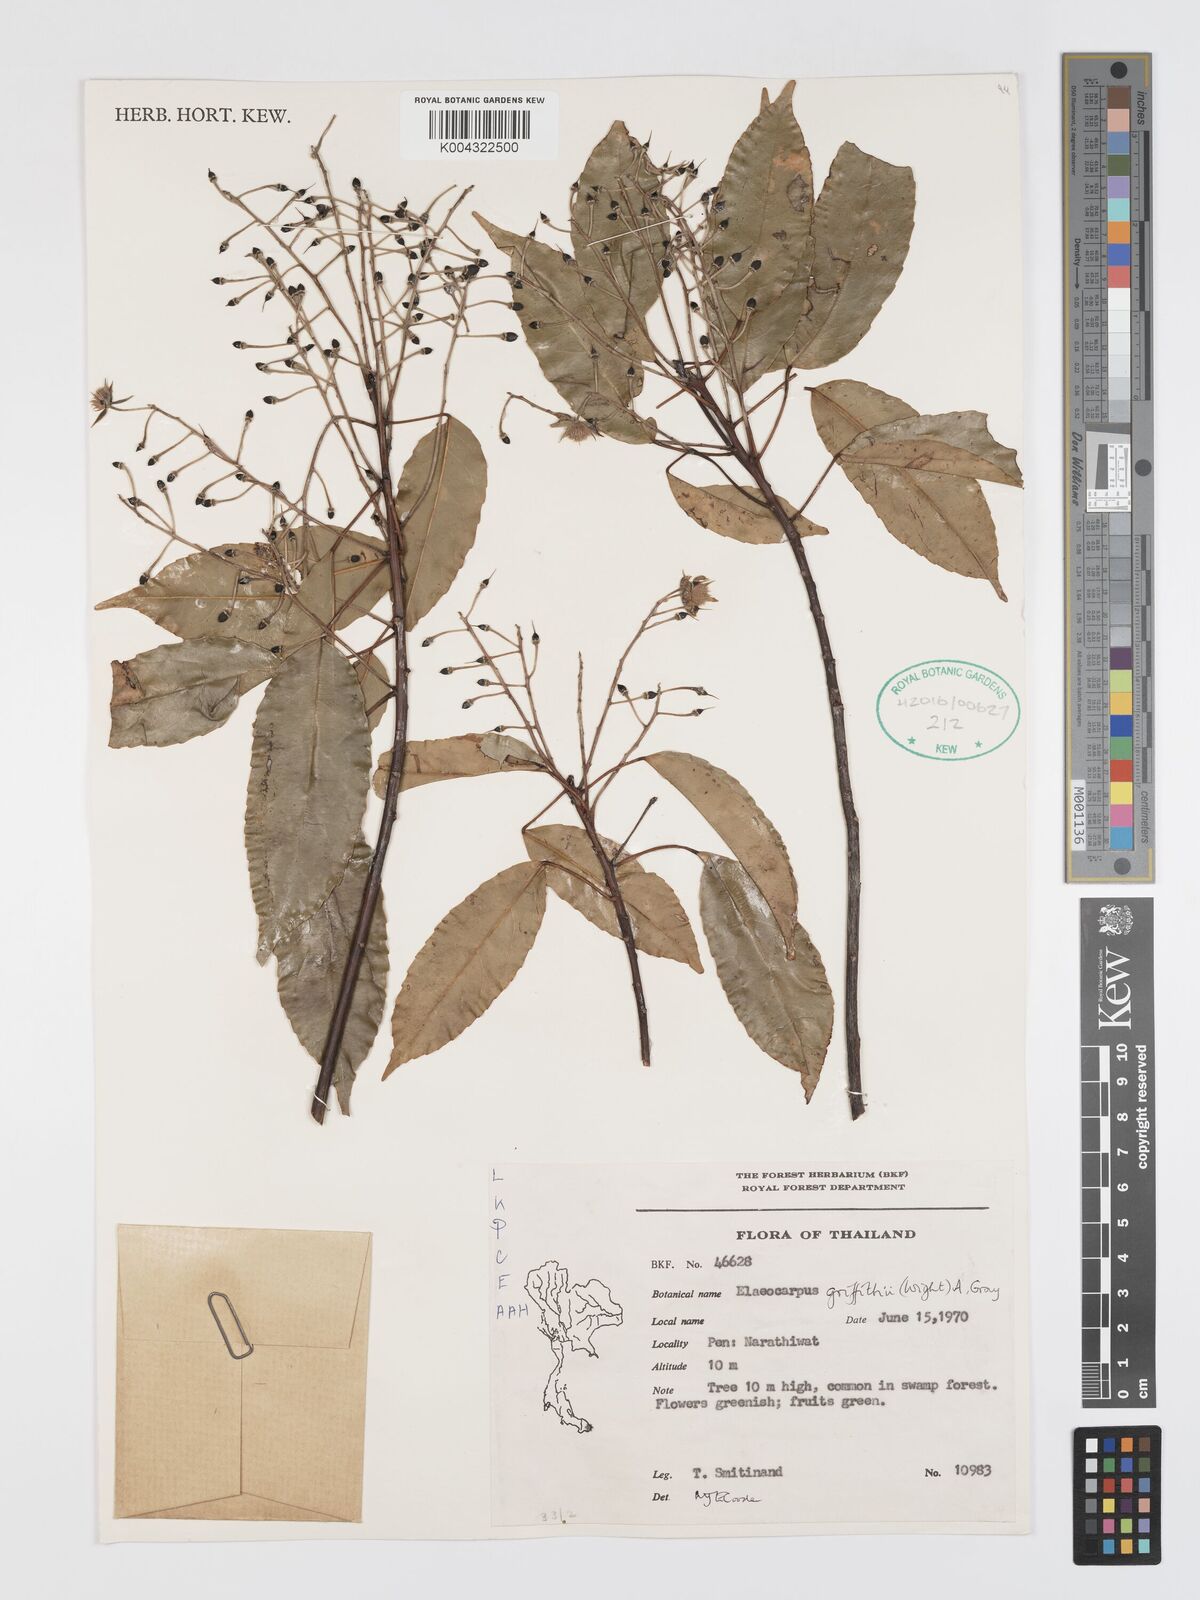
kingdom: Plantae
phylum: Tracheophyta
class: Magnoliopsida
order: Oxalidales
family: Elaeocarpaceae
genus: Elaeocarpus
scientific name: Elaeocarpus griffithii
